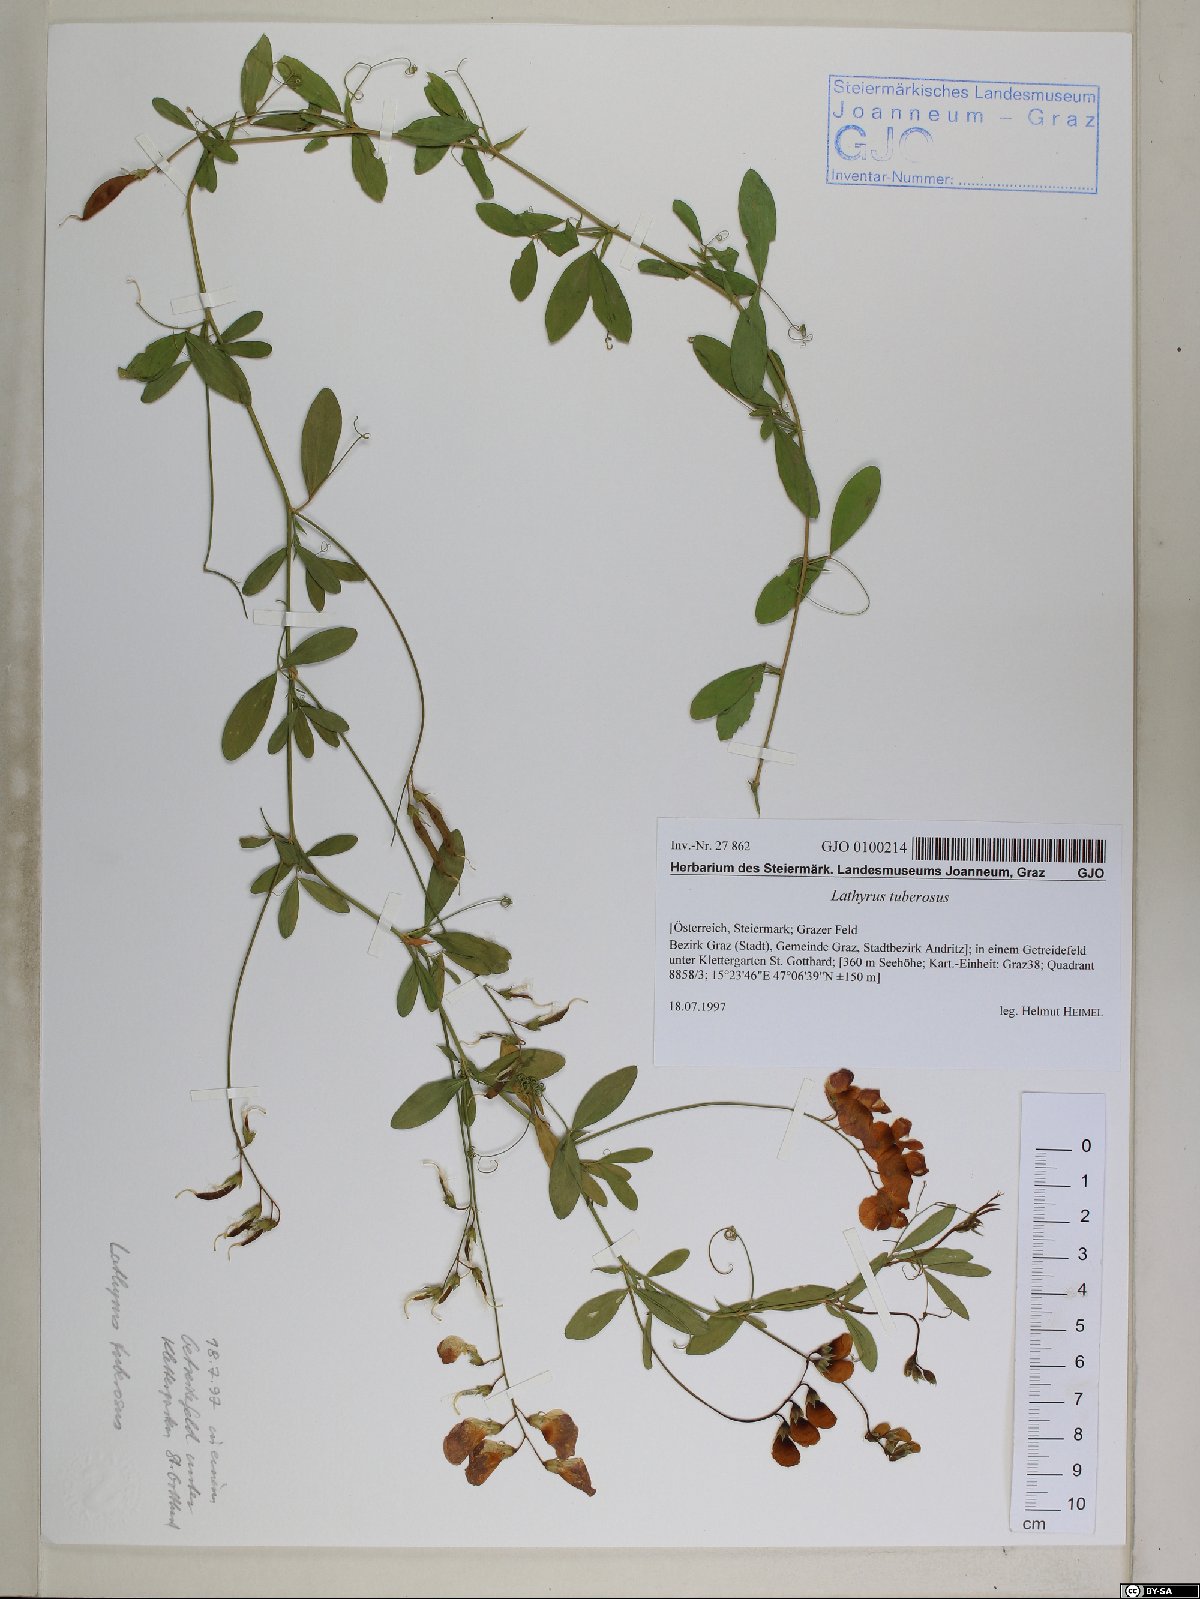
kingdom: Plantae
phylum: Tracheophyta
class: Magnoliopsida
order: Fabales
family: Fabaceae
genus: Lathyrus
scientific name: Lathyrus tuberosus
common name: Tuberous pea
